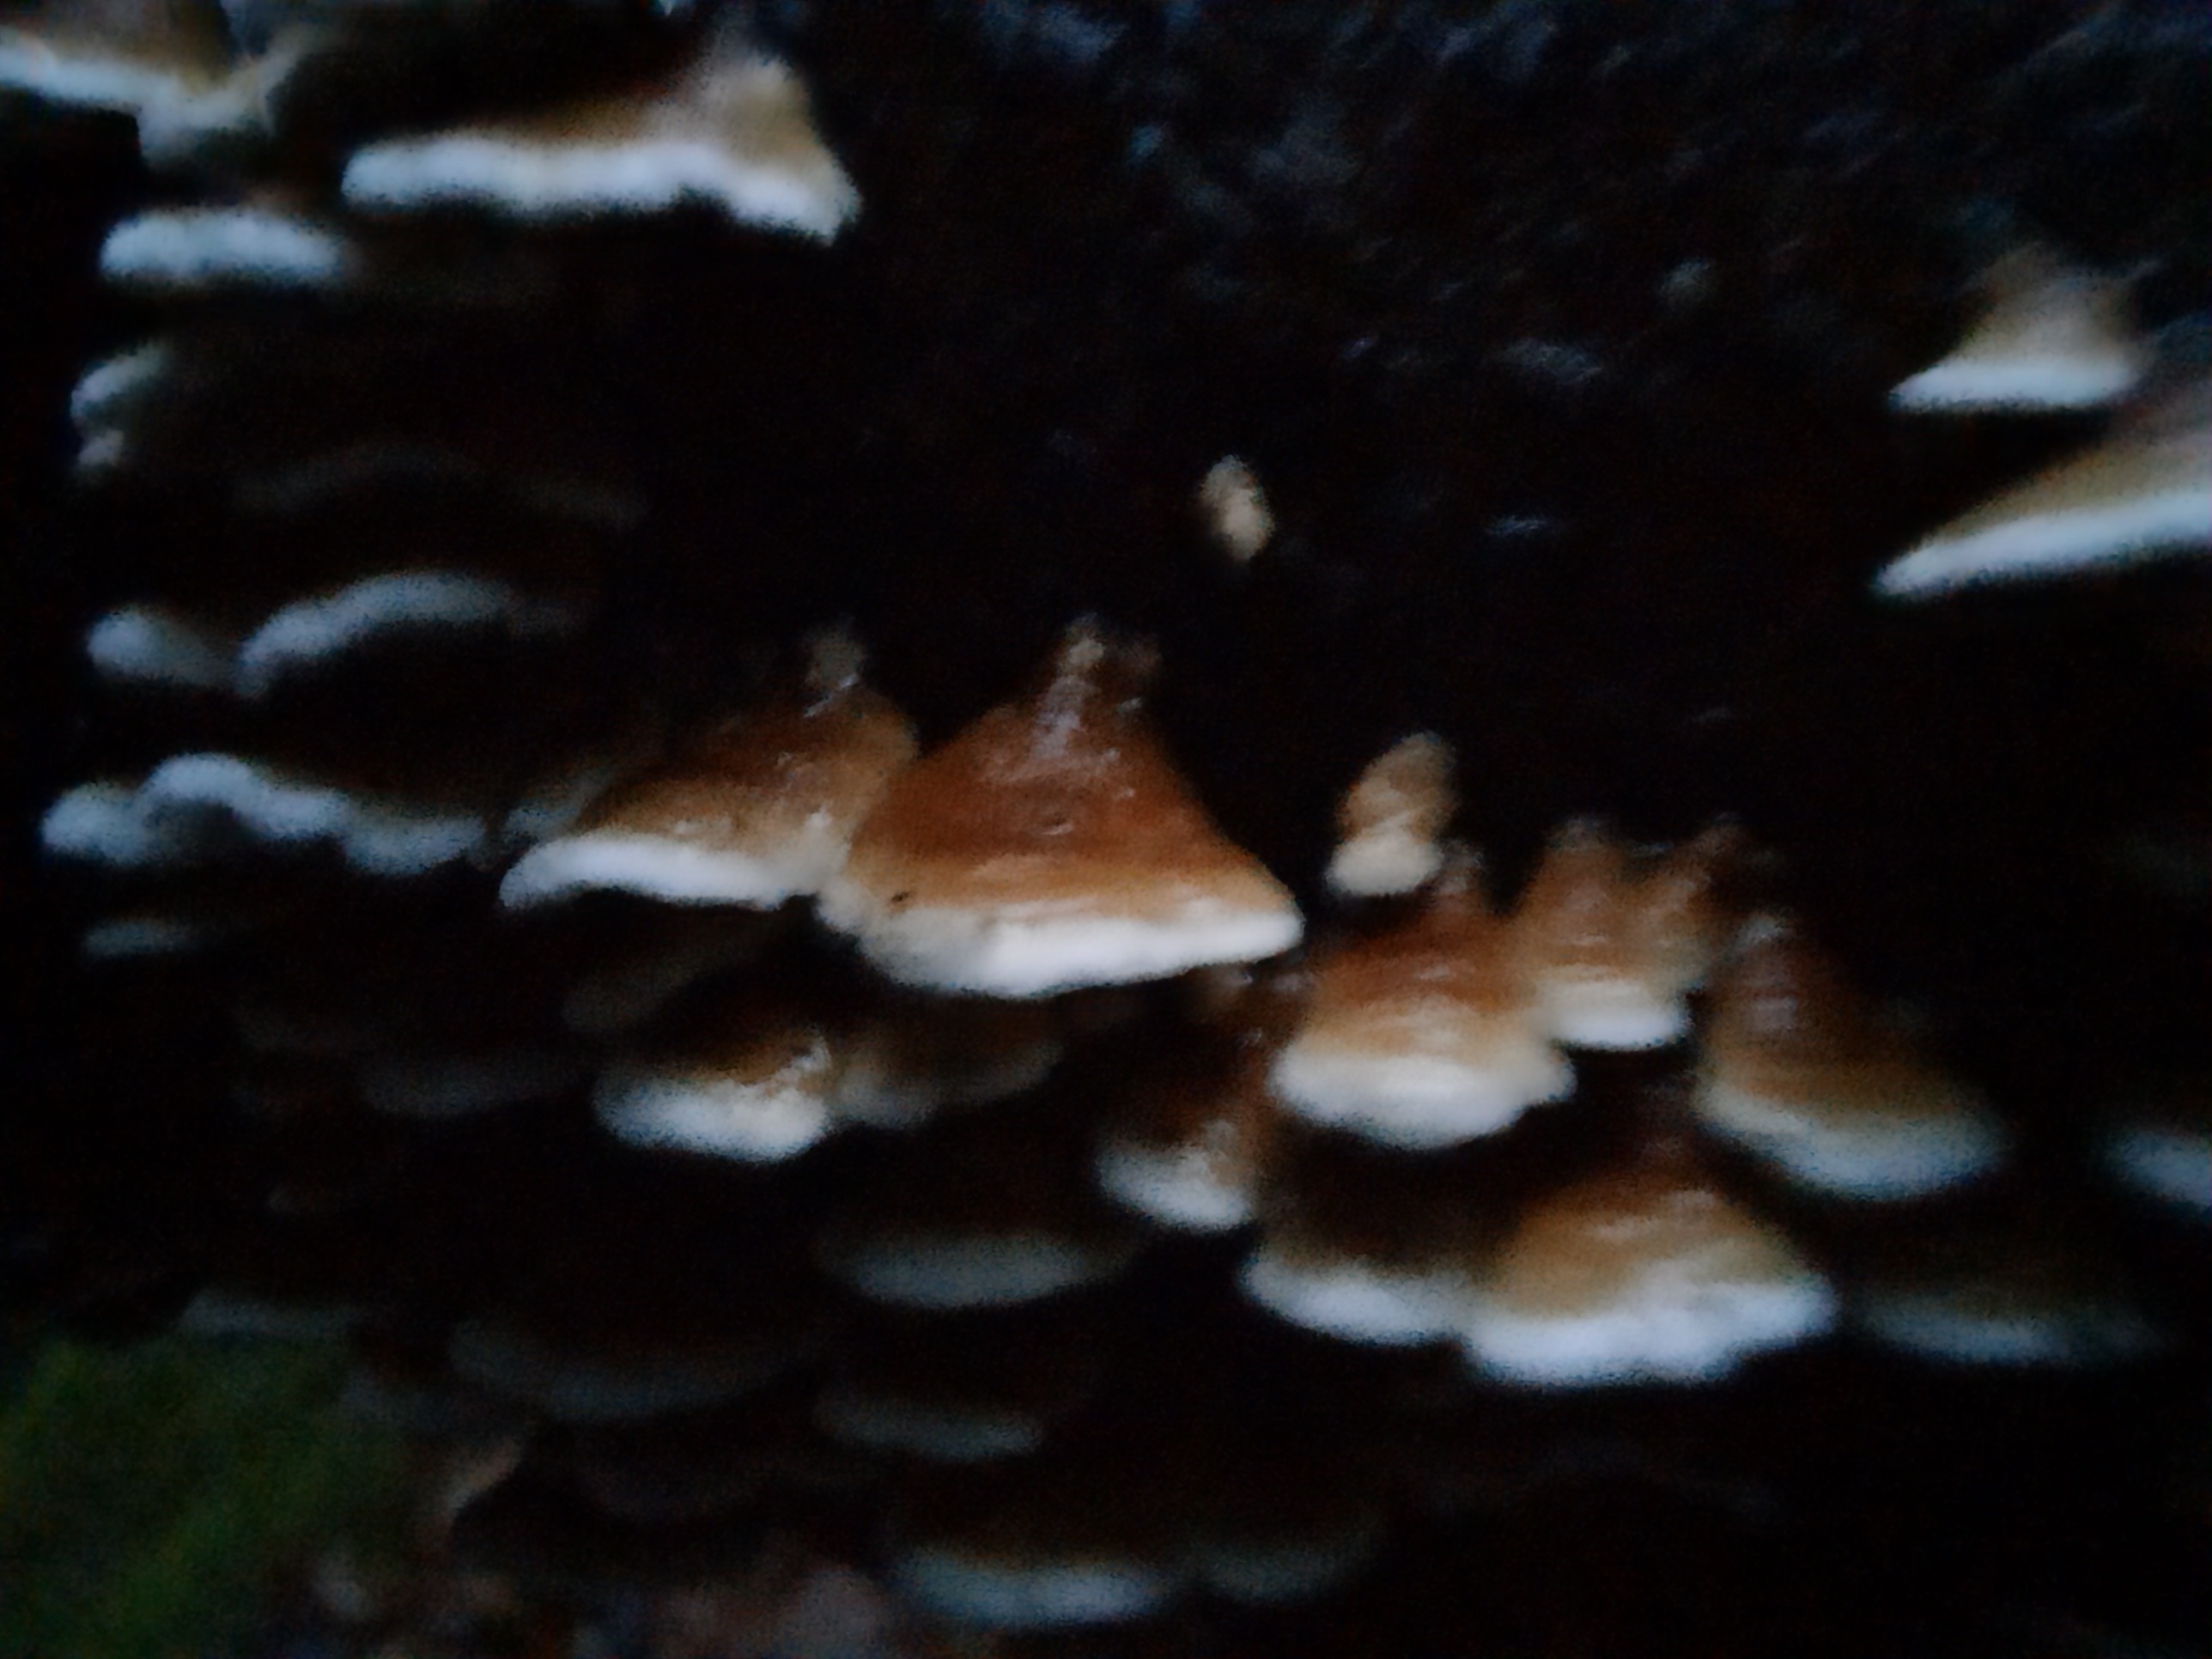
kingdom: Fungi
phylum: Basidiomycota
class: Agaricomycetes
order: Amylocorticiales
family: Amylocorticiaceae
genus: Plicaturopsis
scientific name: Plicaturopsis crispa
